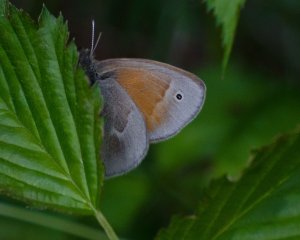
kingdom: Animalia
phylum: Arthropoda
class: Insecta
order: Lepidoptera
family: Nymphalidae
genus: Coenonympha
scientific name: Coenonympha tullia
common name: Large Heath
